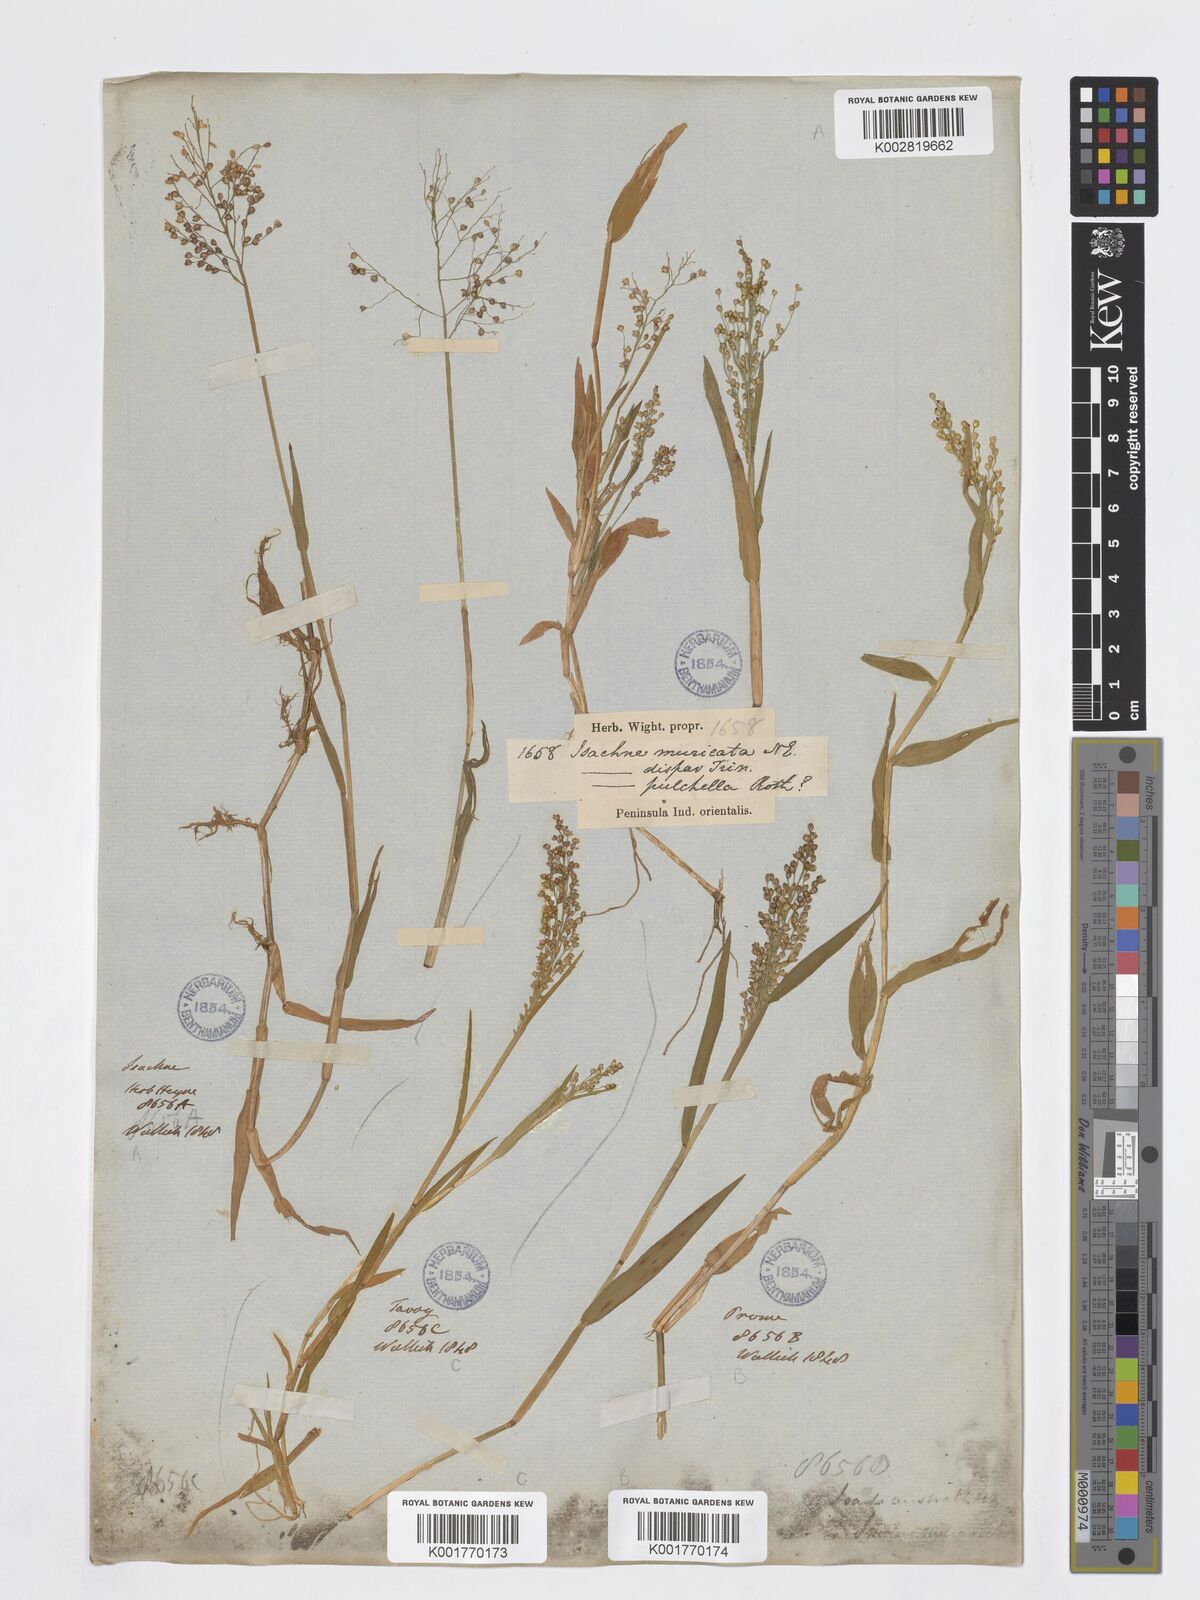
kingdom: Plantae
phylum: Tracheophyta
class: Liliopsida
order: Poales
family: Poaceae
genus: Isachne
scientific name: Isachne globosa
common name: Swamp millet
